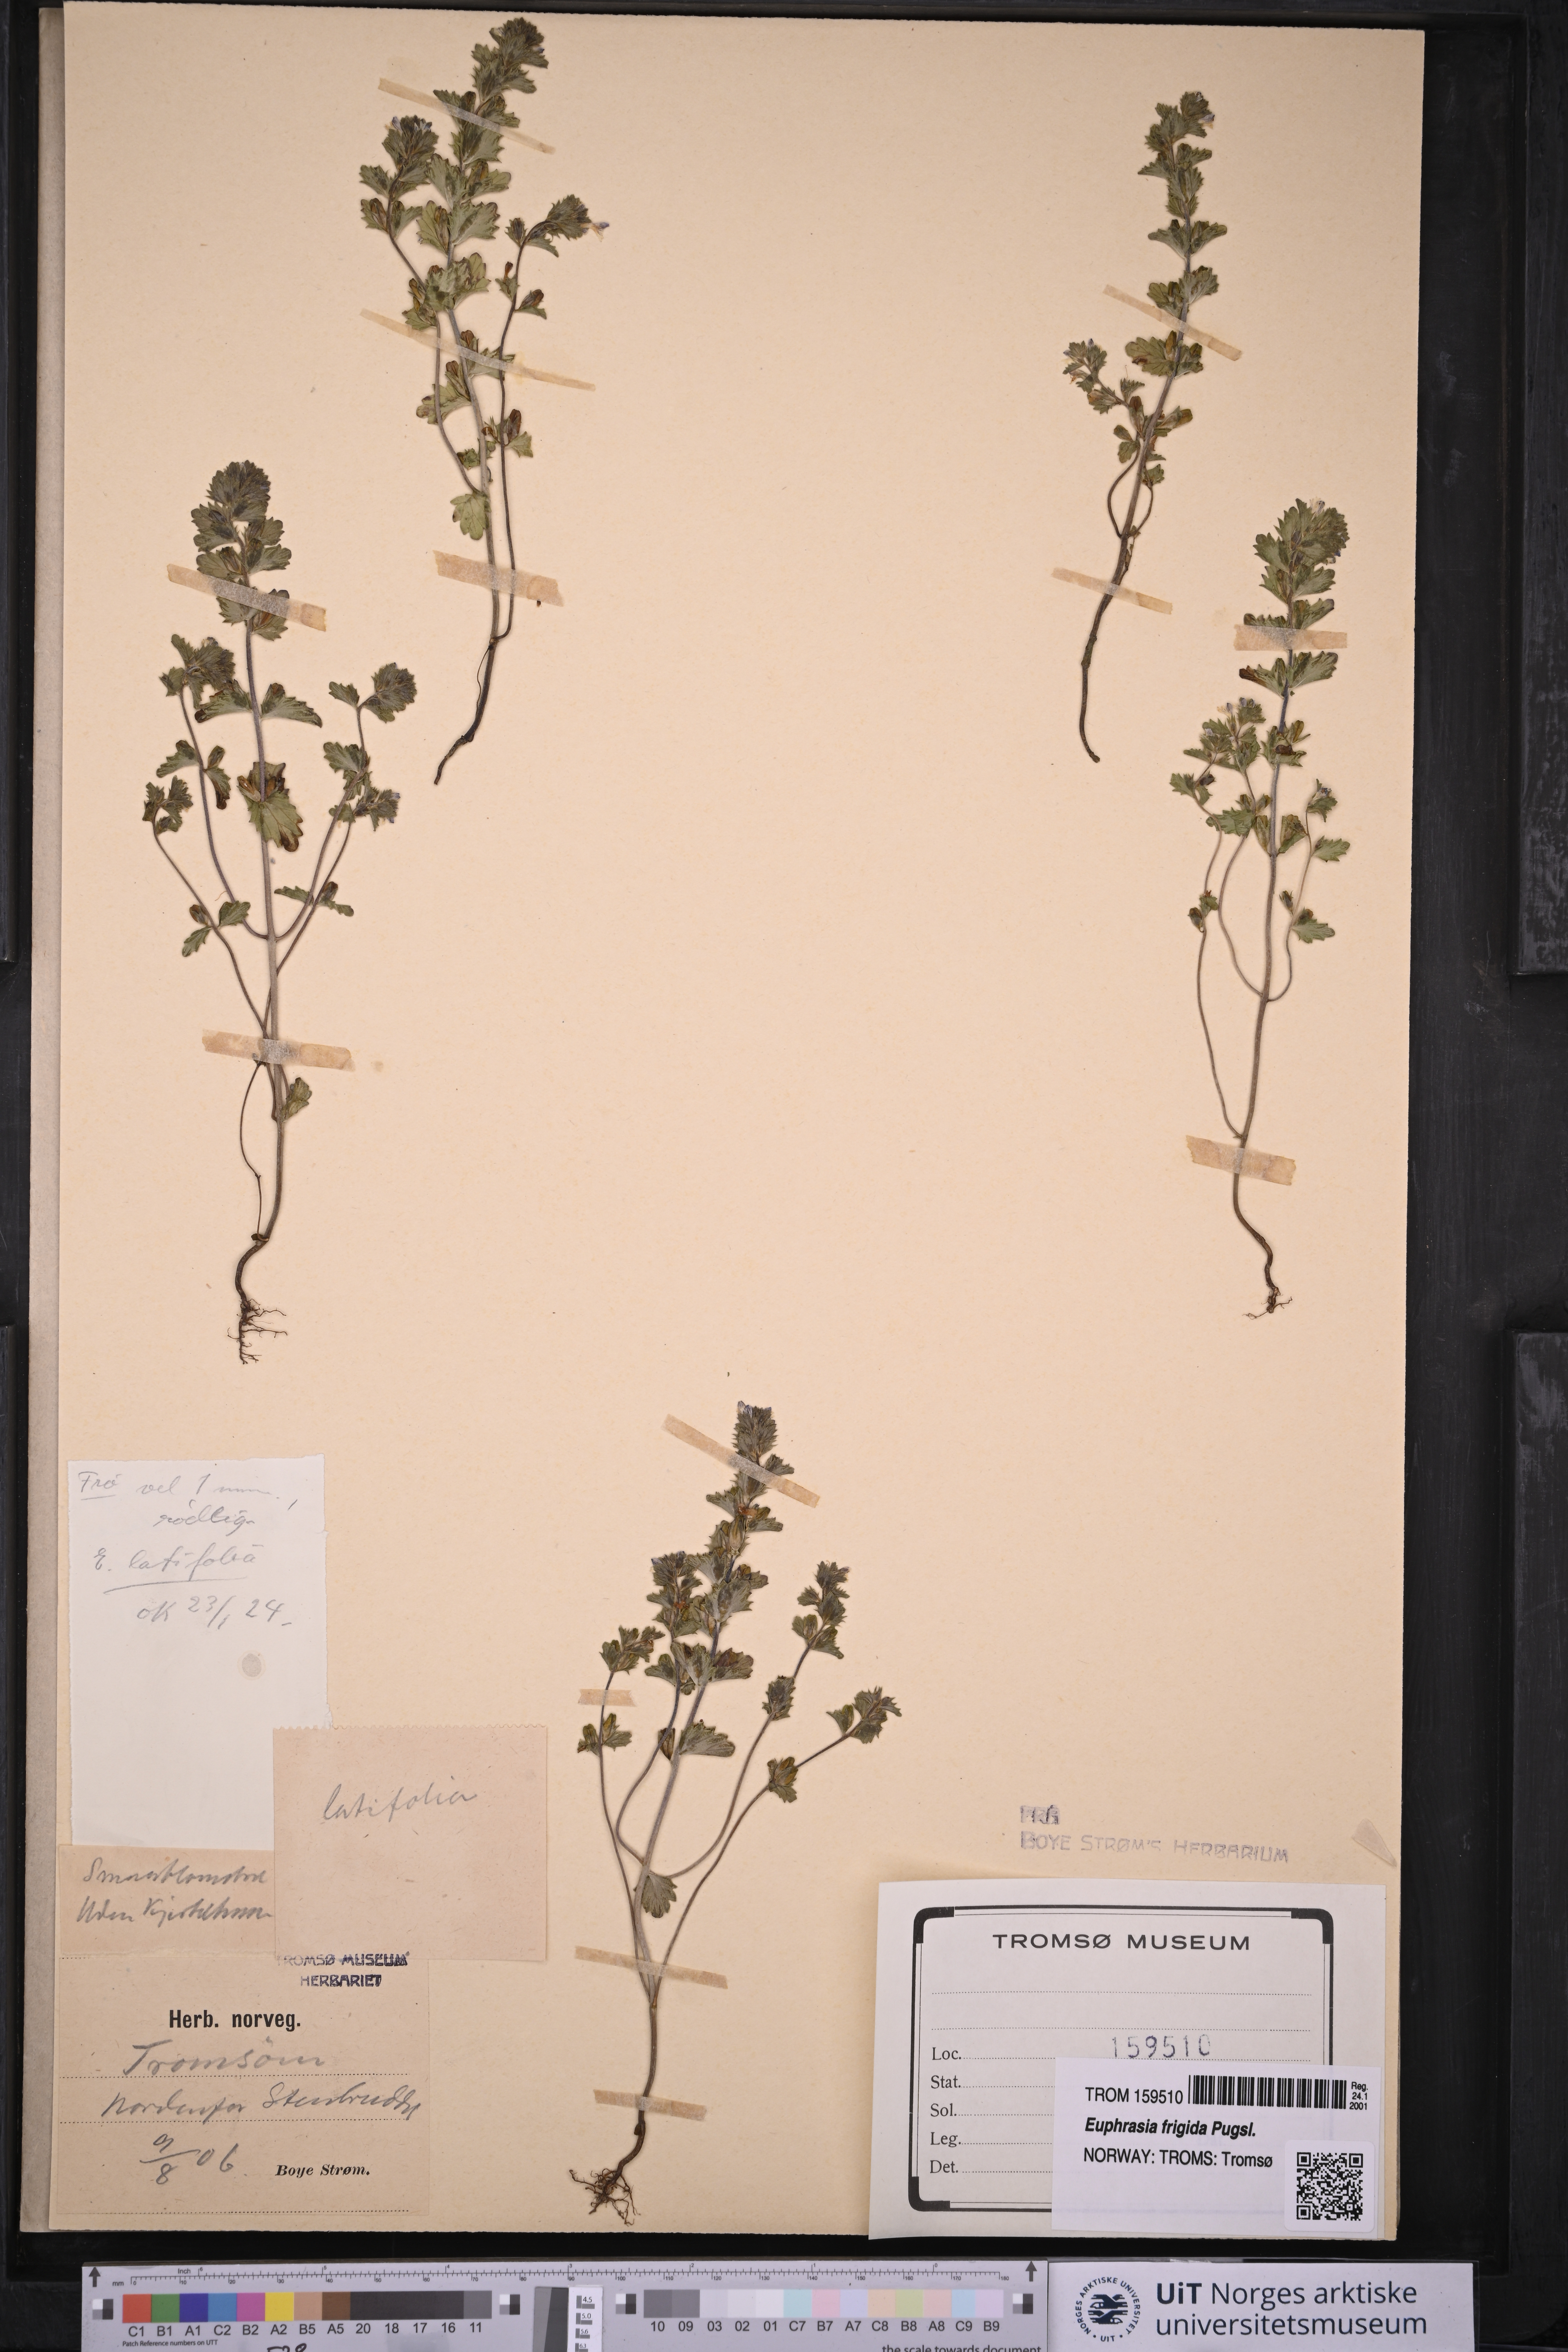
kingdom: Plantae
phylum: Tracheophyta
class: Magnoliopsida
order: Lamiales
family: Orobanchaceae
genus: Euphrasia
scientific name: Euphrasia wettsteinii
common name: Wettstein's eyebright
